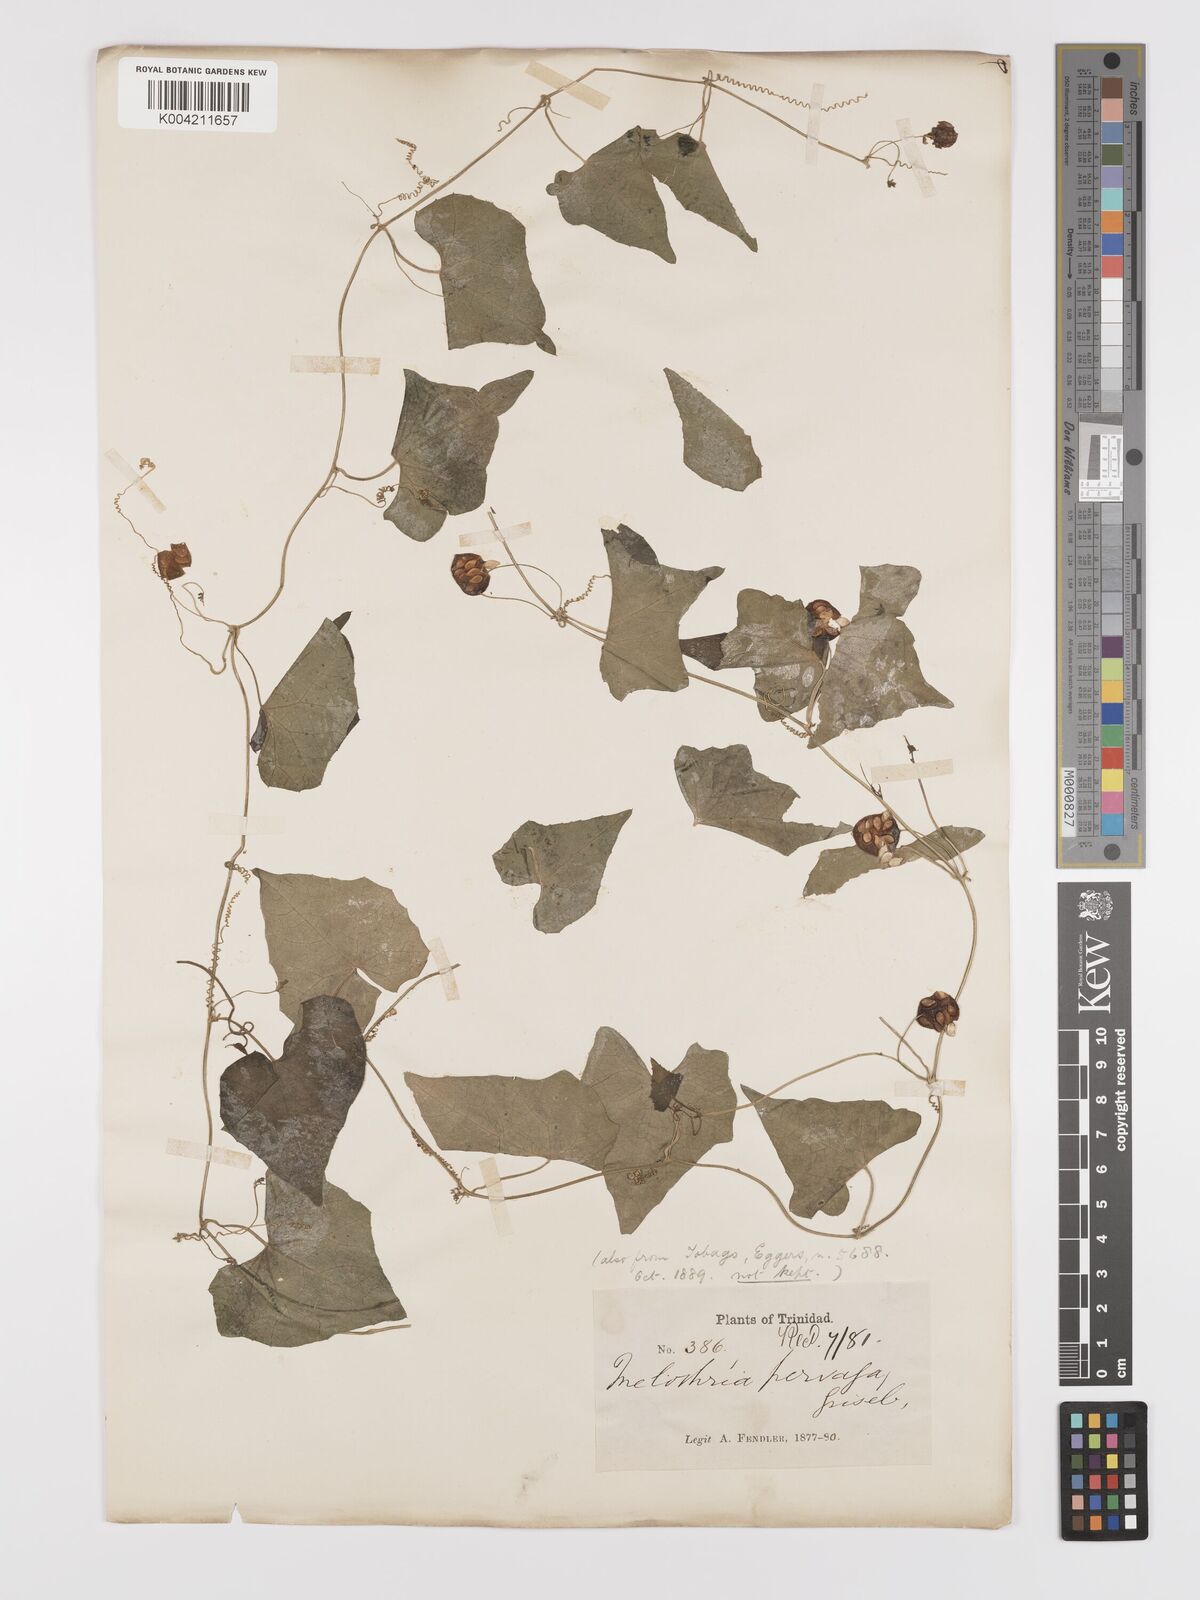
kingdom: Plantae
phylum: Tracheophyta
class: Magnoliopsida
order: Cucurbitales
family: Cucurbitaceae
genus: Melothria
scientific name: Melothria
